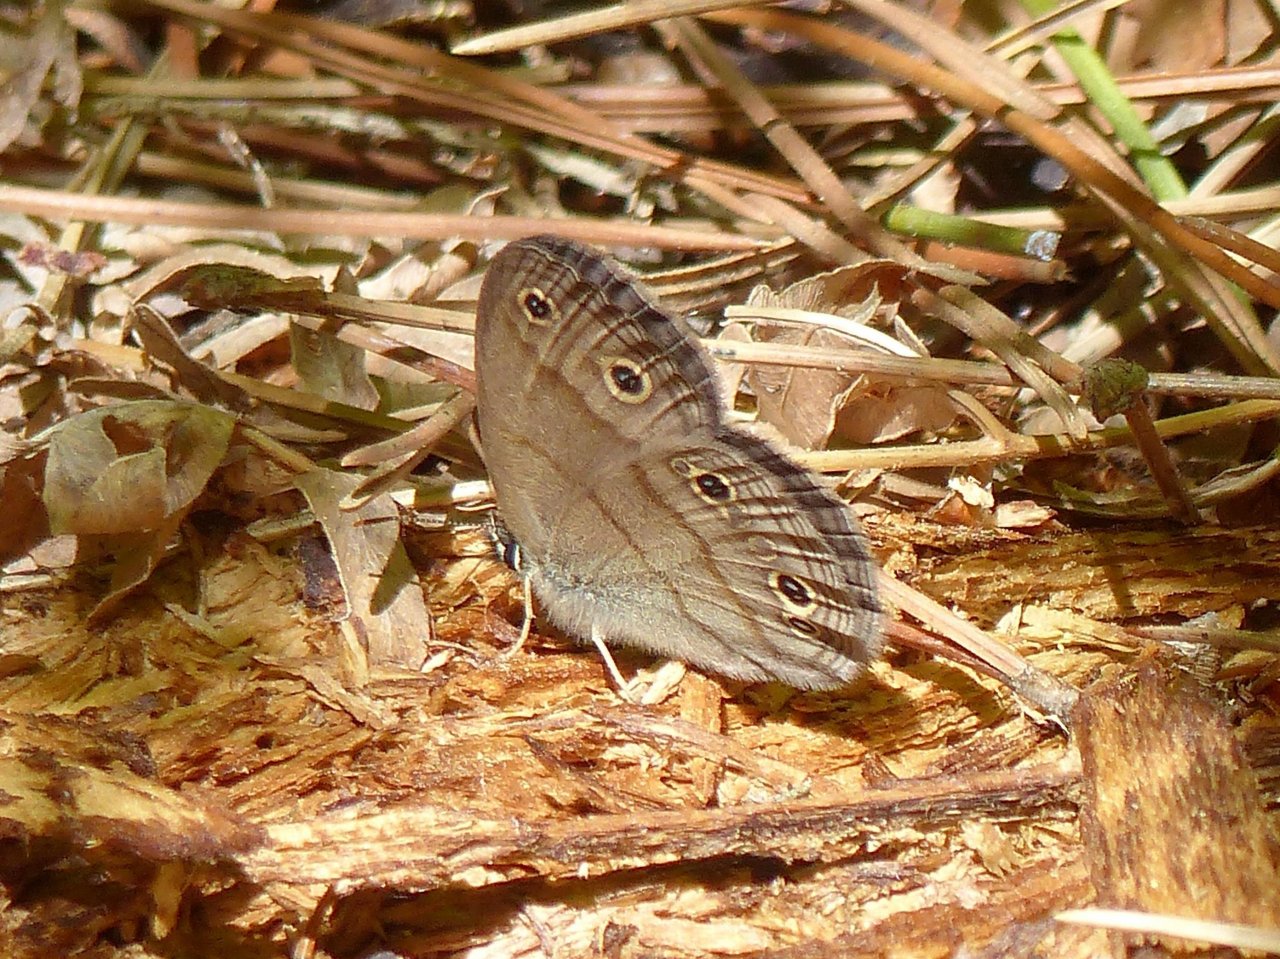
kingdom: Animalia
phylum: Arthropoda
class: Insecta
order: Lepidoptera
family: Nymphalidae
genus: Euptychia
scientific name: Euptychia cymela
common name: Little Wood Satyr
